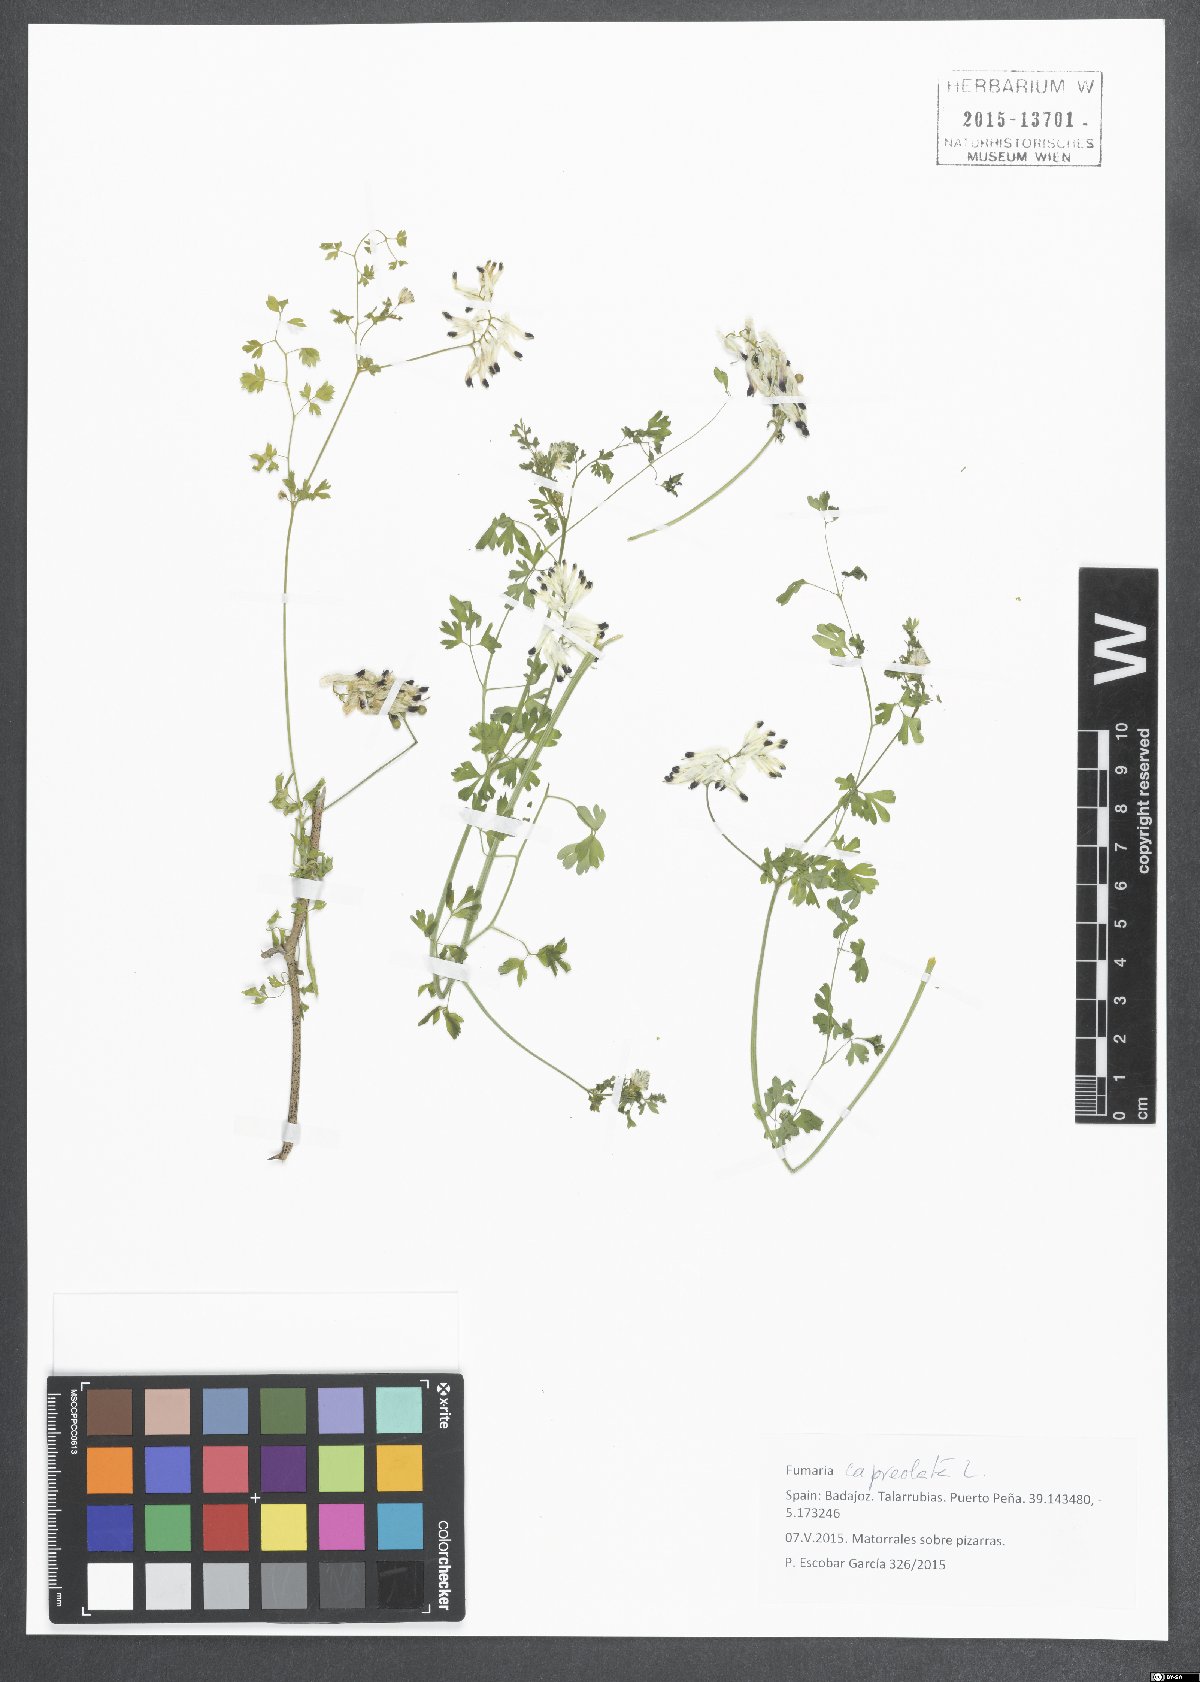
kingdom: Plantae
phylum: Tracheophyta
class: Magnoliopsida
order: Ranunculales
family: Papaveraceae
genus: Fumaria
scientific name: Fumaria capreolata
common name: White ramping-fumitory
